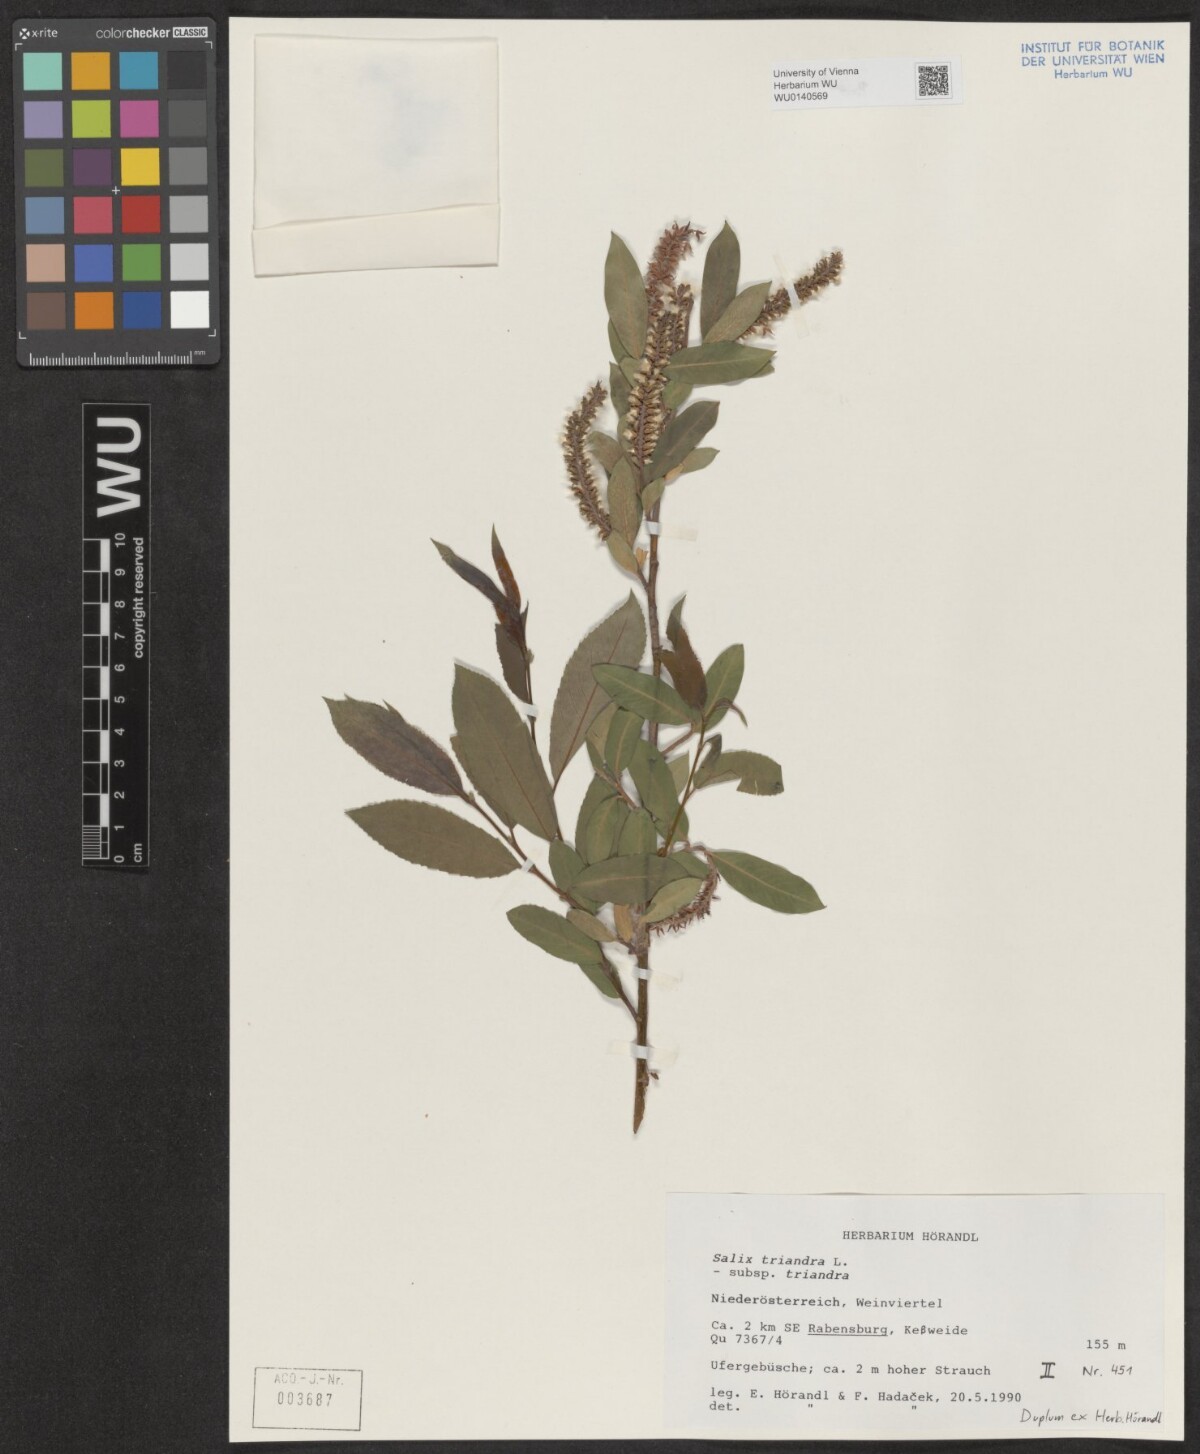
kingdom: Plantae
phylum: Tracheophyta
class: Magnoliopsida
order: Malpighiales
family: Salicaceae
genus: Salix
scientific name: Salix triandra
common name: Almond willow
